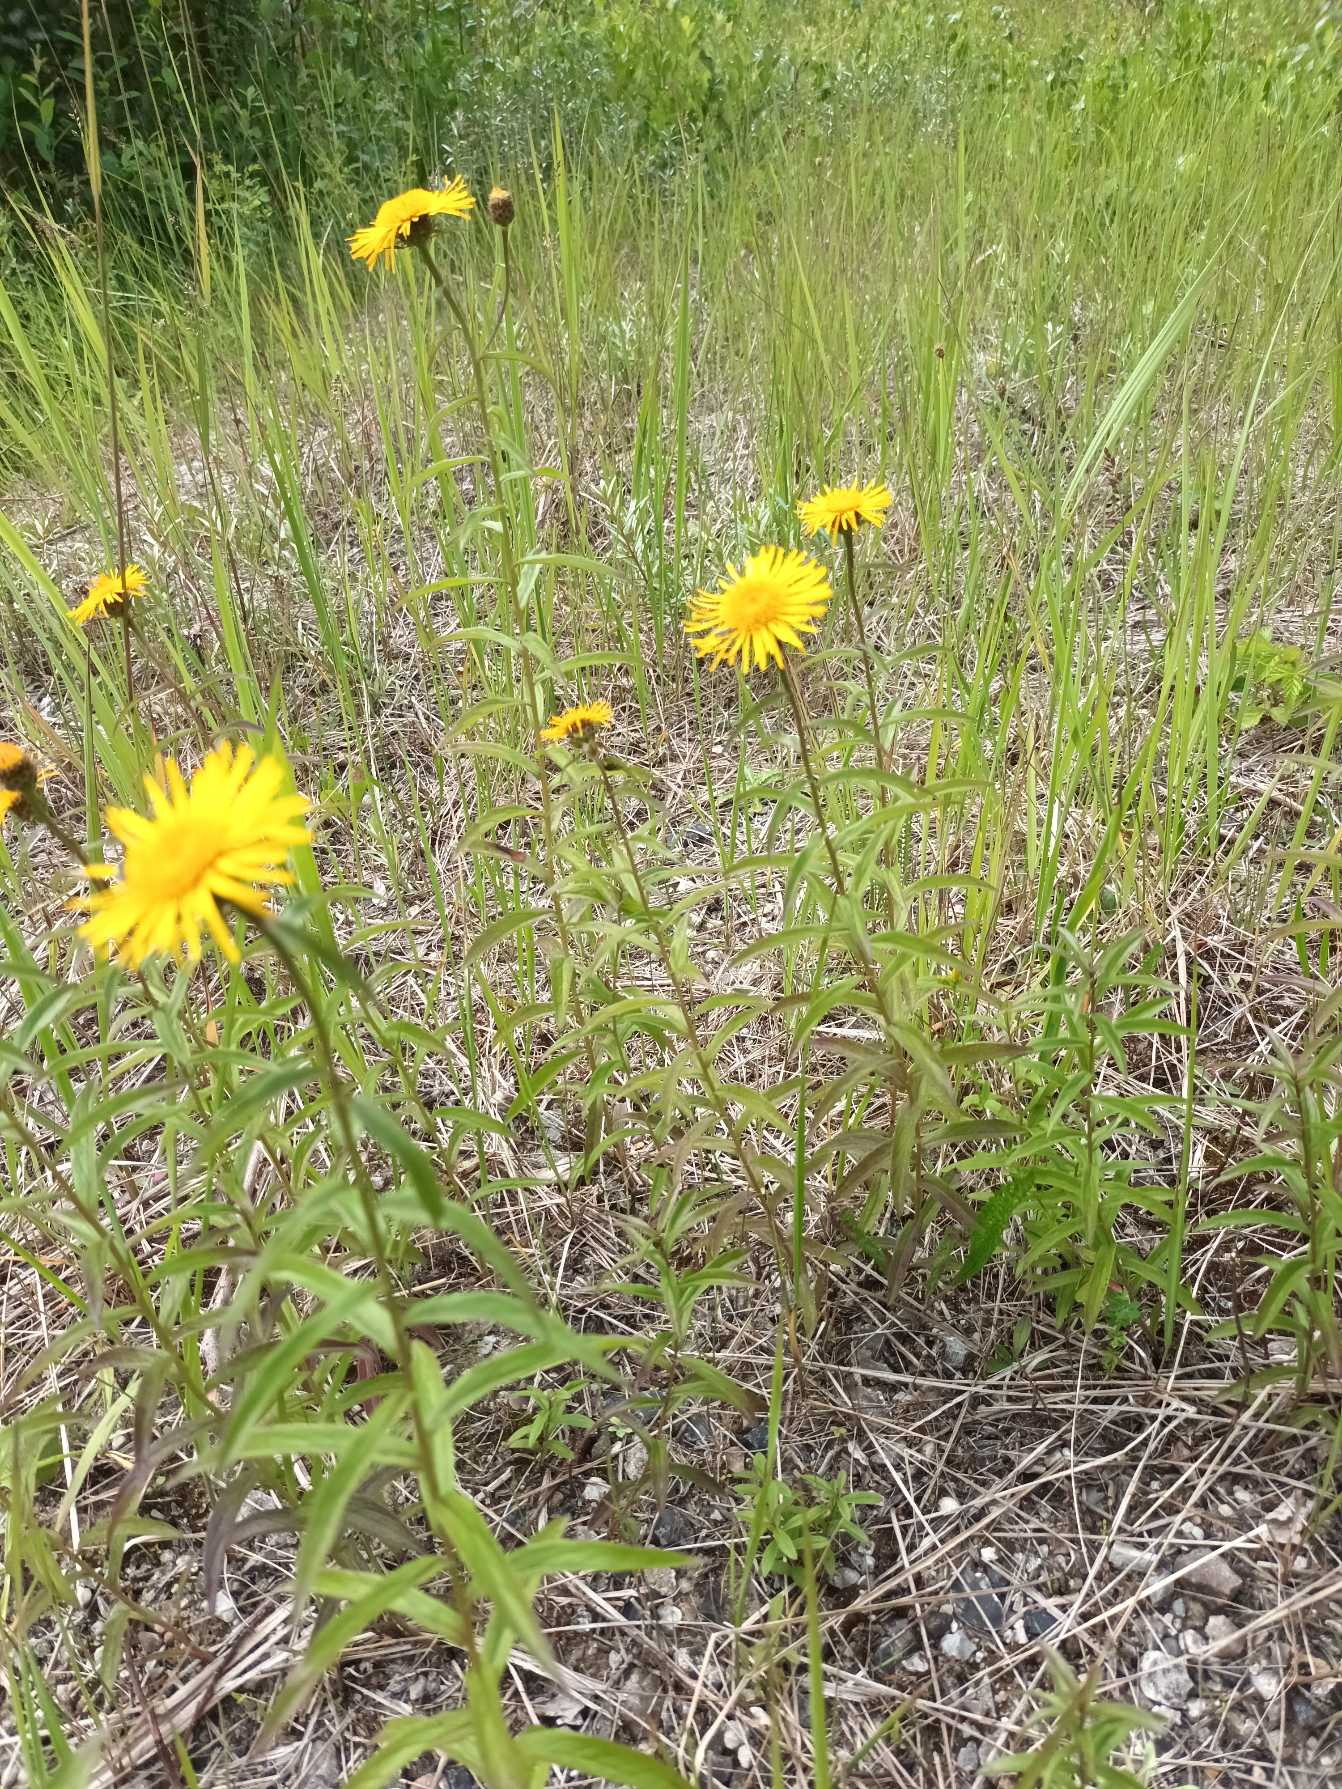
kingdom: Plantae
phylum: Tracheophyta
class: Magnoliopsida
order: Asterales
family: Asteraceae
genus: Pentanema
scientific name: Pentanema salicinum
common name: Pile-alant
